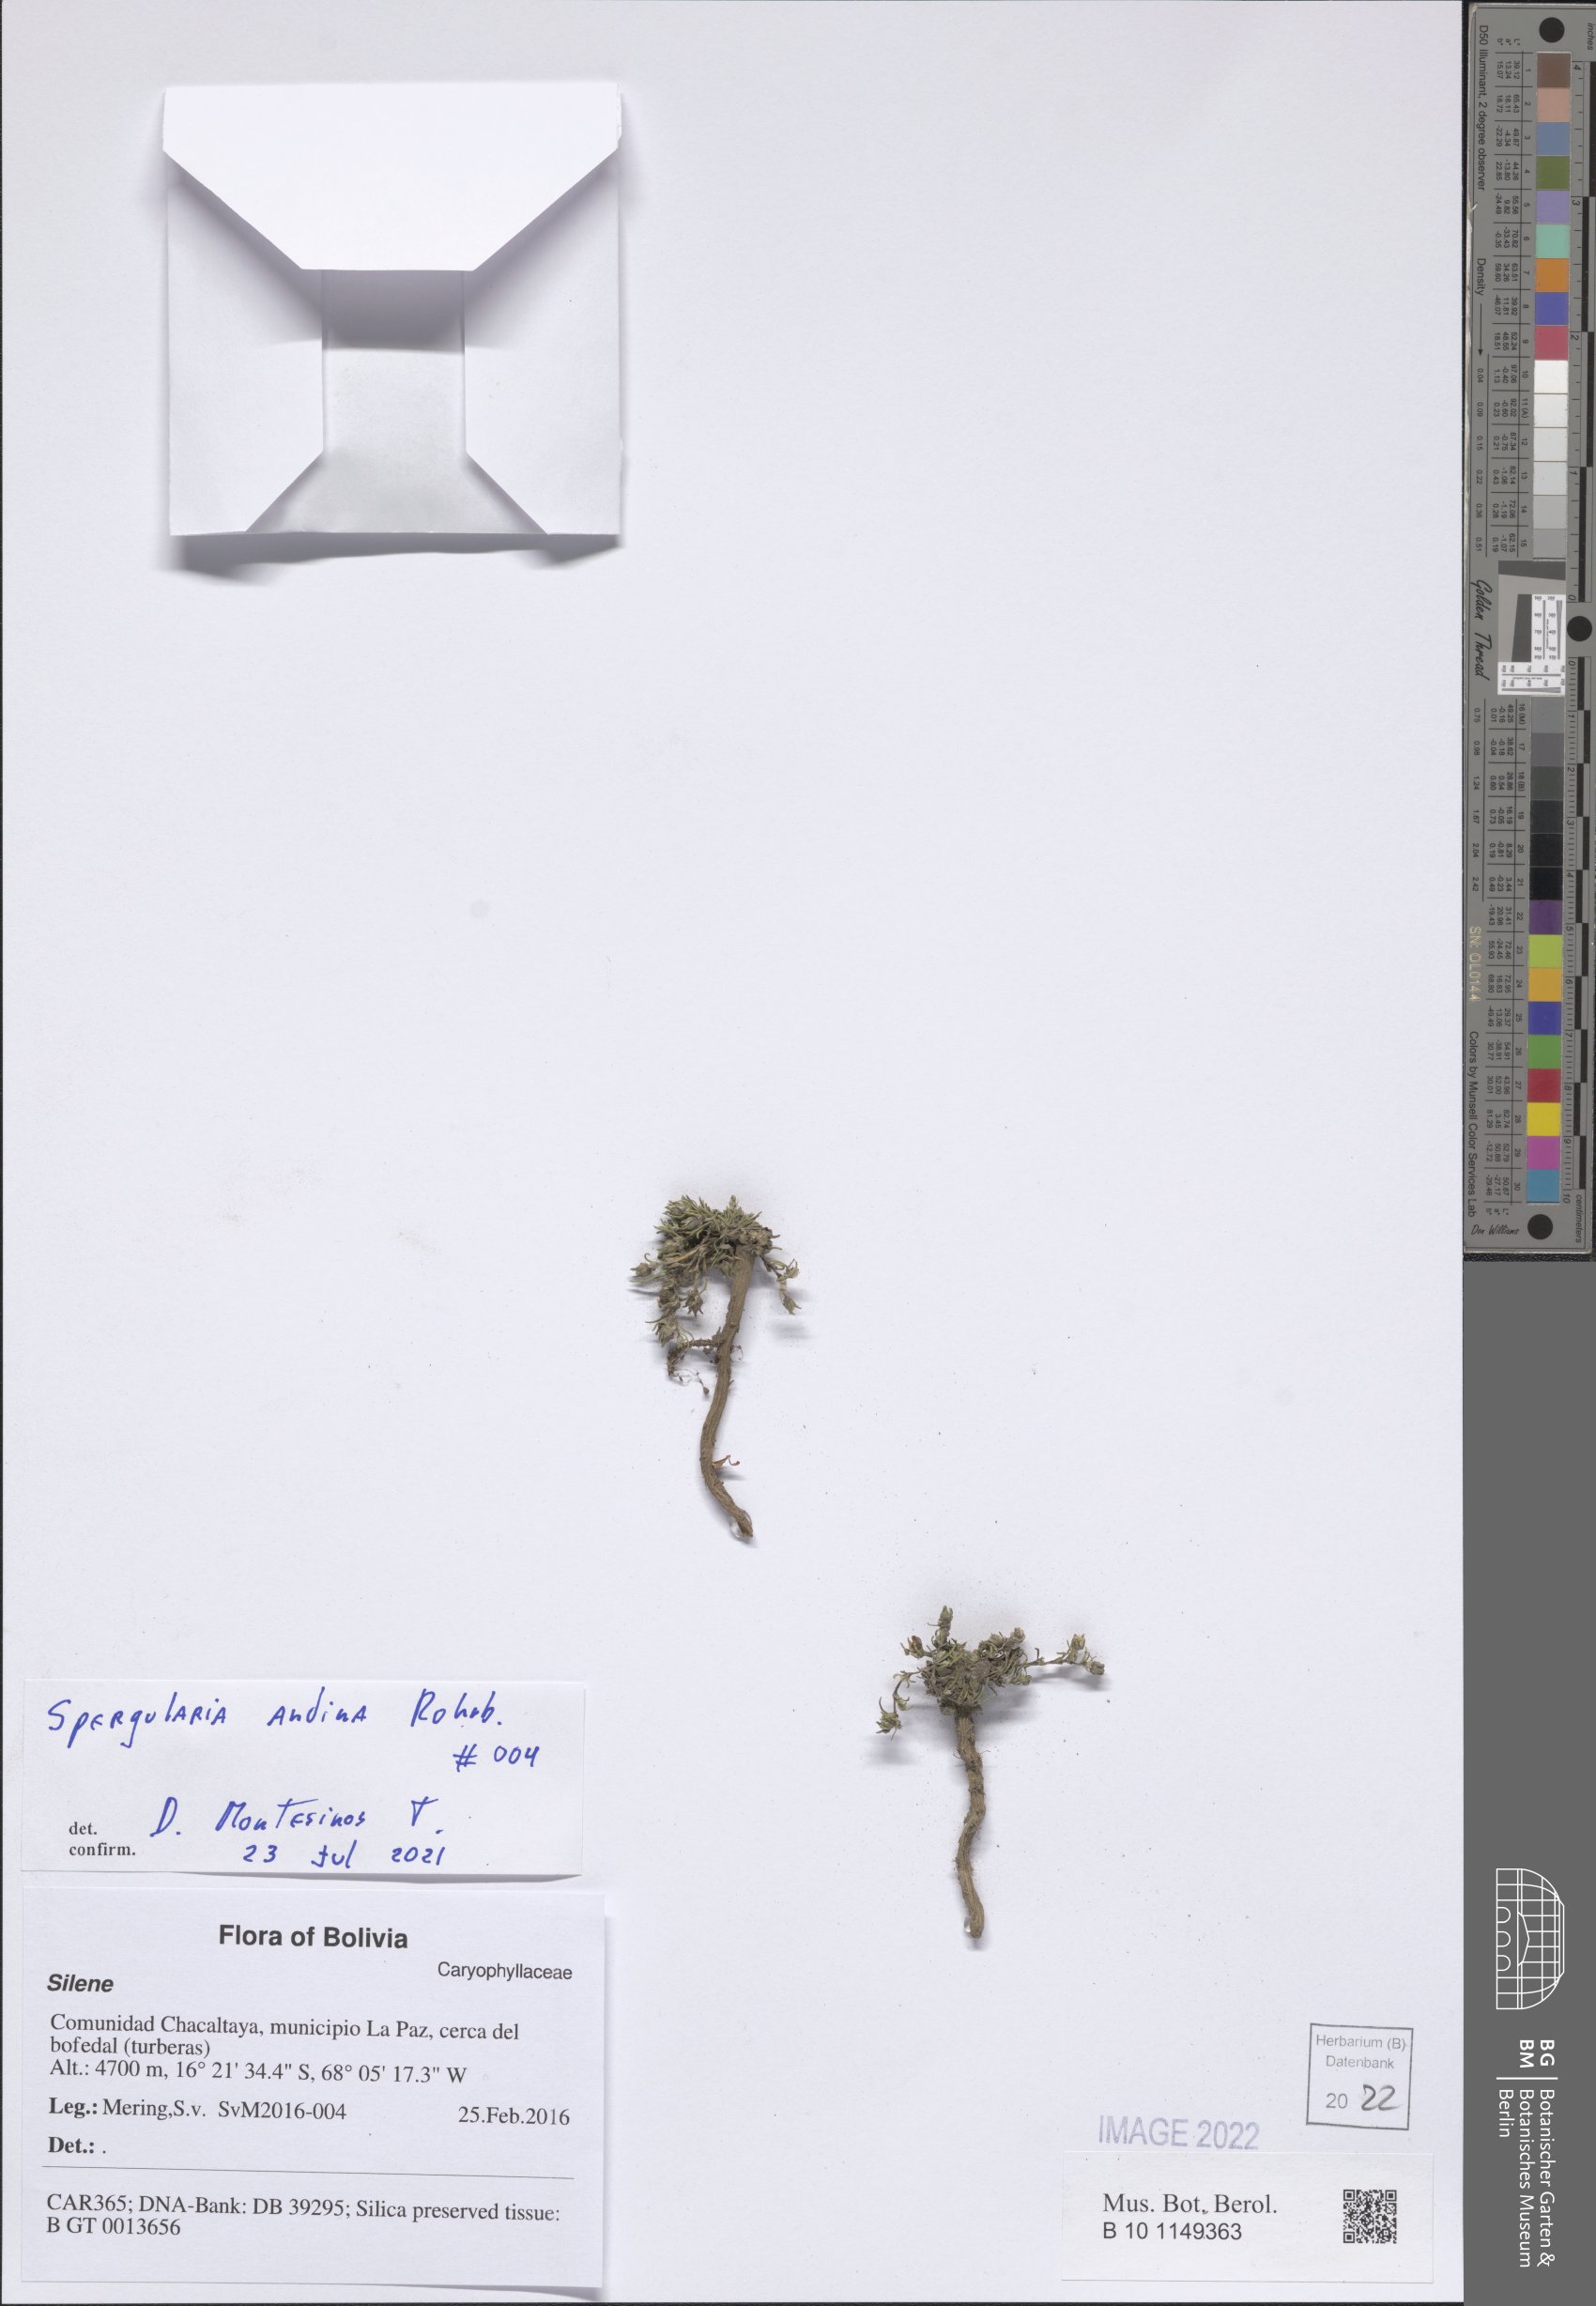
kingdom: Plantae
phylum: Tracheophyta
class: Magnoliopsida
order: Caryophyllales
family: Caryophyllaceae
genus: Spergularia
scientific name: Spergularia andina
